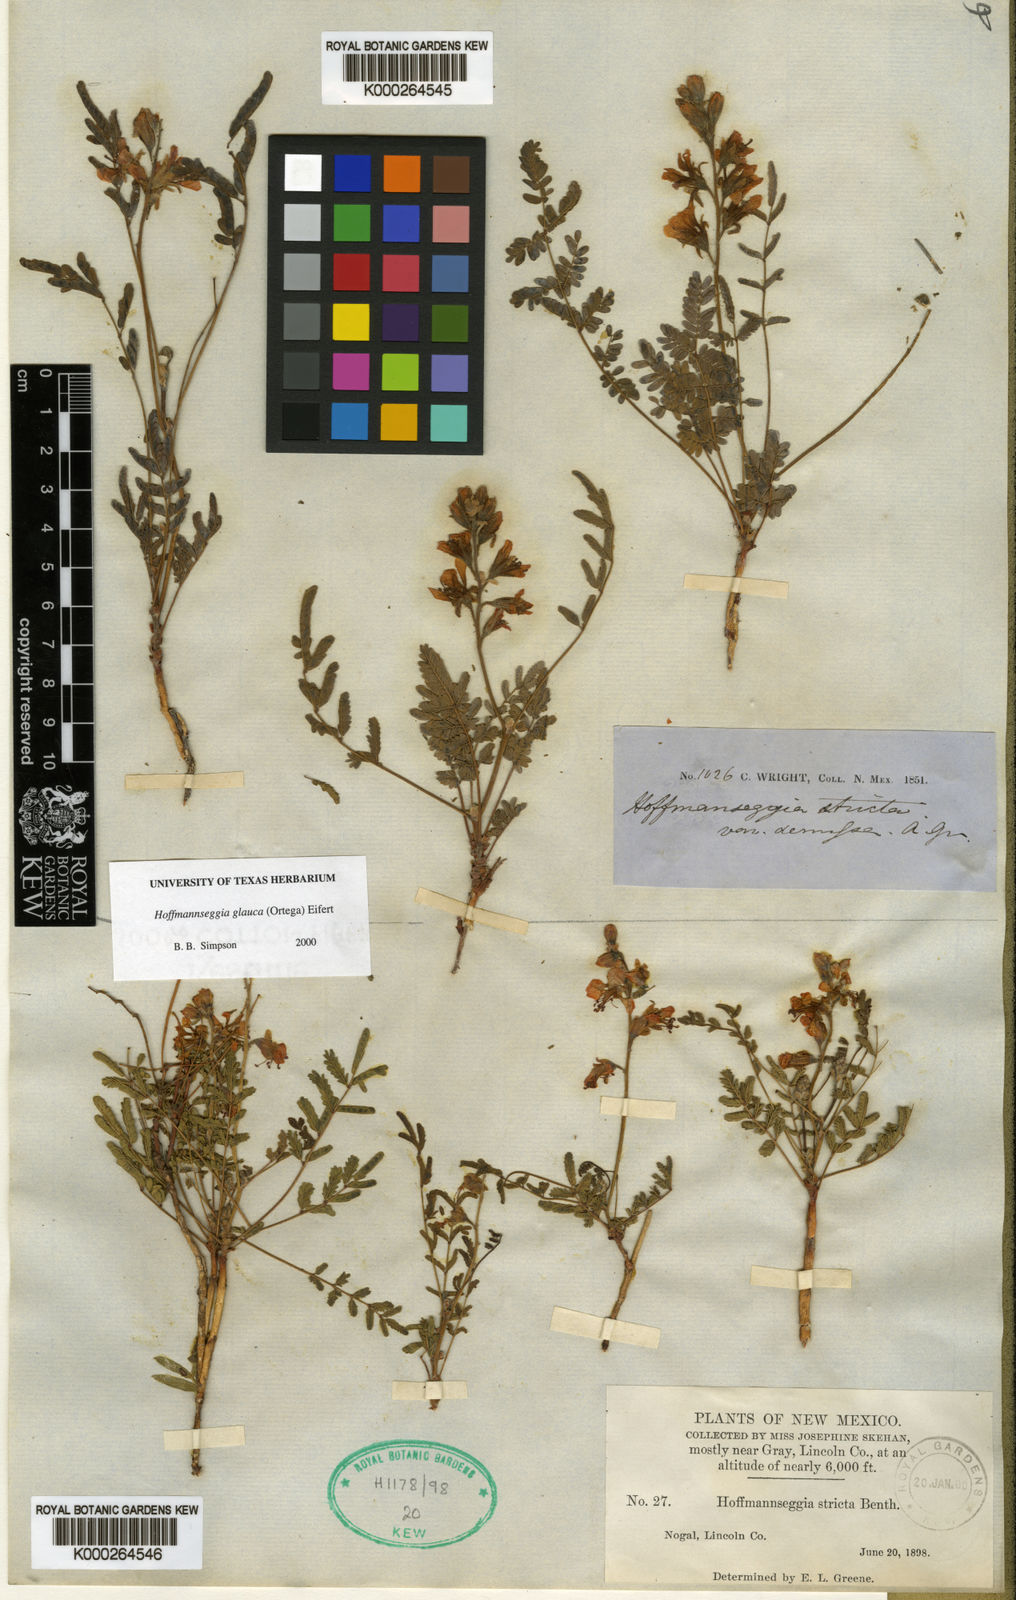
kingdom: Plantae
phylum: Tracheophyta
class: Magnoliopsida
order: Fabales
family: Fabaceae
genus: Hoffmannseggia
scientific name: Hoffmannseggia glauca
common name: Pignut
